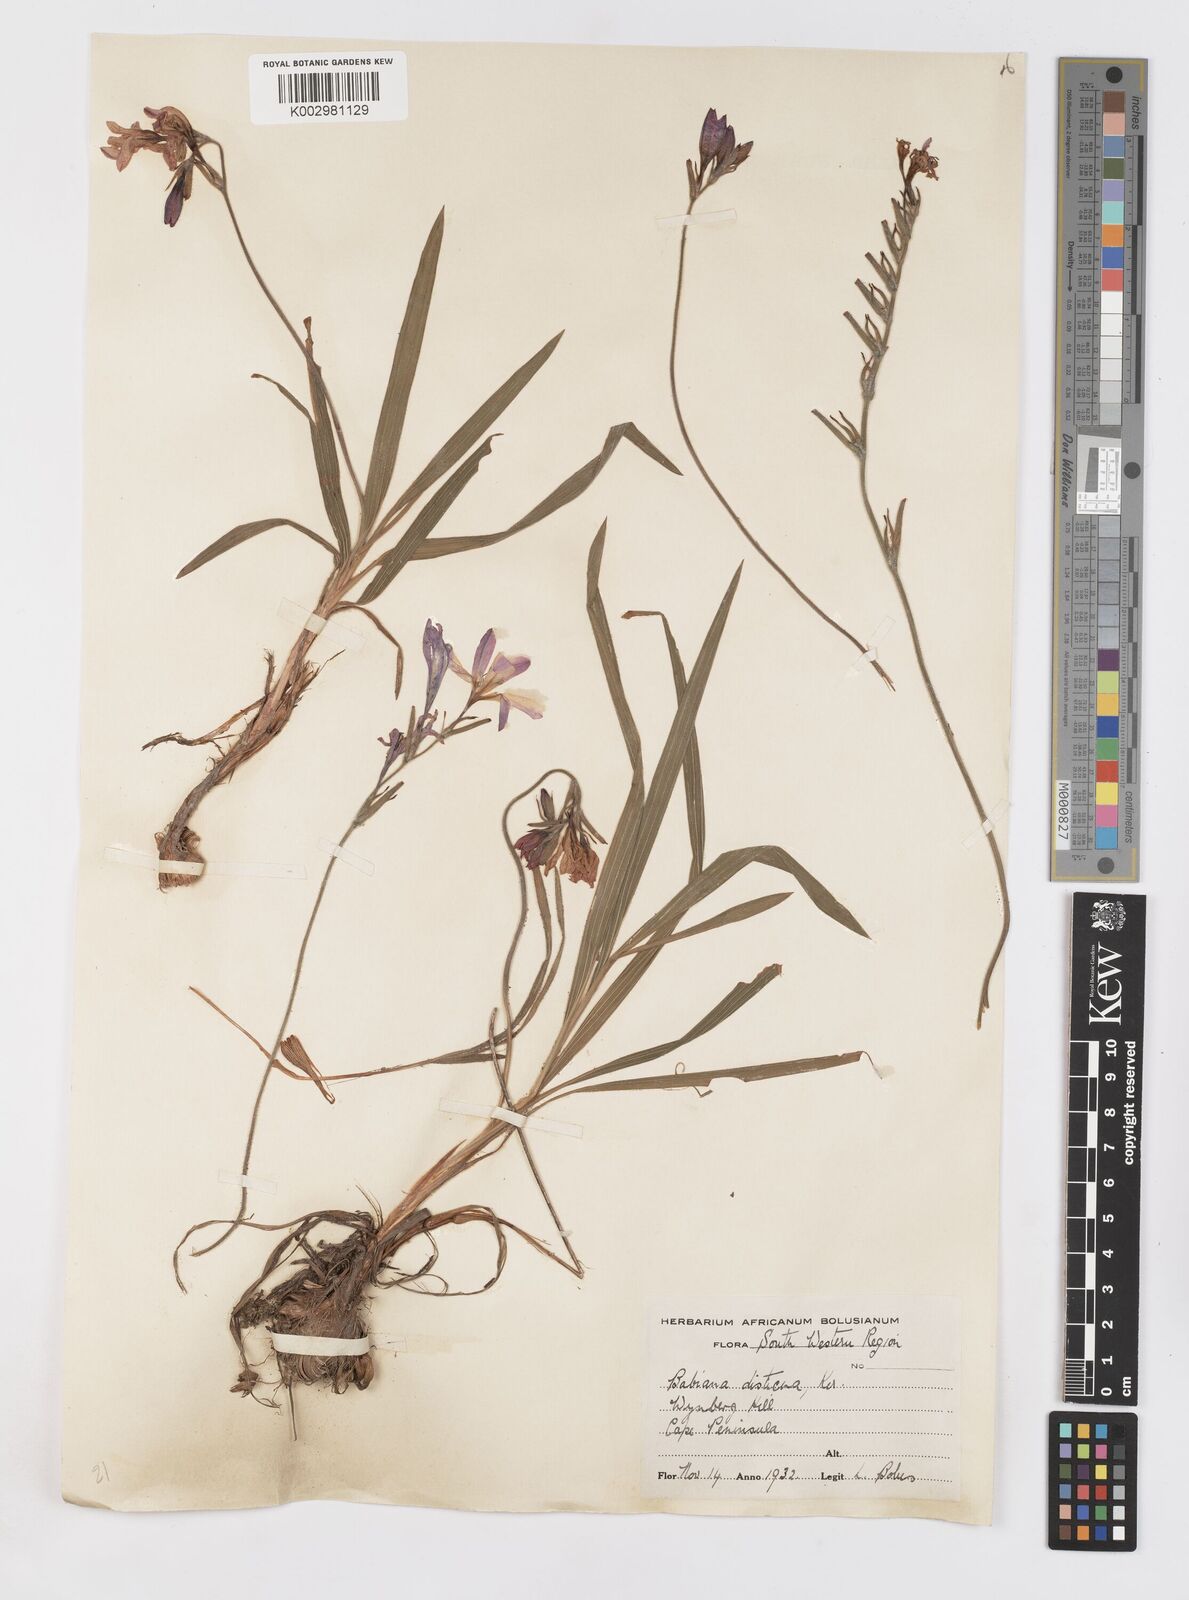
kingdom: Plantae
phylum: Tracheophyta
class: Liliopsida
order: Asparagales
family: Iridaceae
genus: Babiana
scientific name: Babiana
